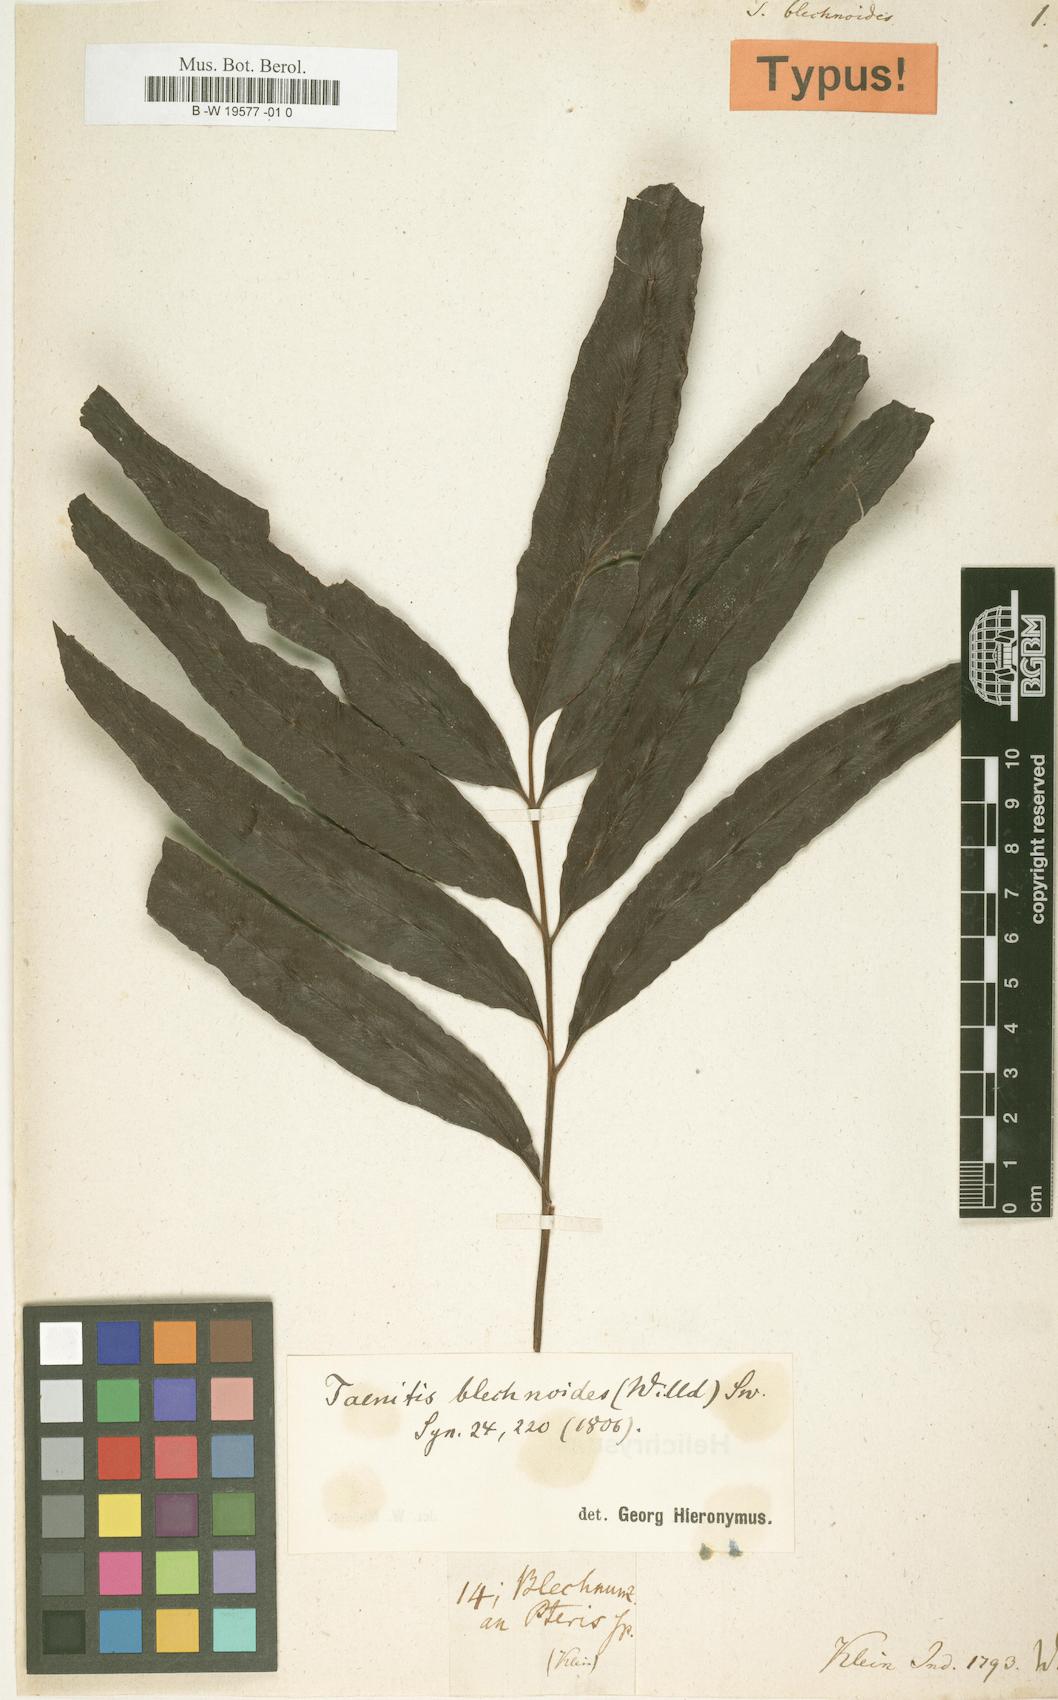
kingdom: Plantae
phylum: Tracheophyta
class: Polypodiopsida
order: Polypodiales
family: Pteridaceae
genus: Taenitis
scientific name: Taenitis blechnoides
